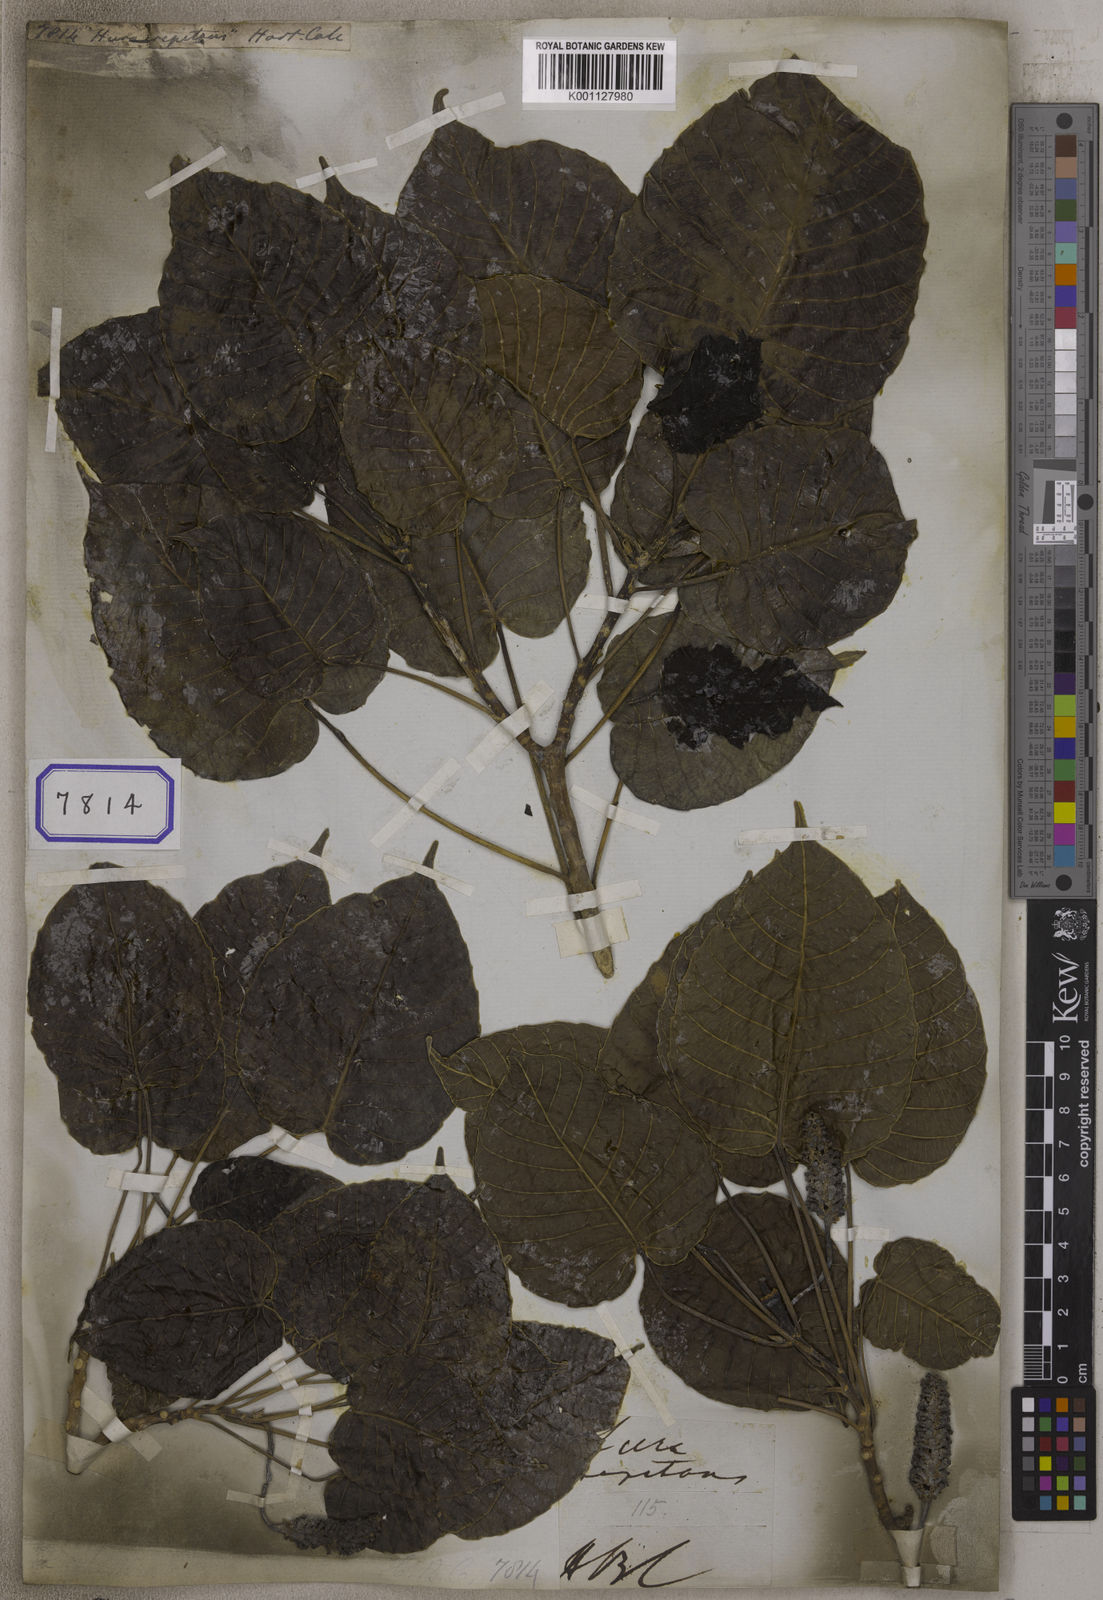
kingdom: Plantae
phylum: Tracheophyta
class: Magnoliopsida
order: Malpighiales
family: Euphorbiaceae
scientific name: Euphorbiaceae
